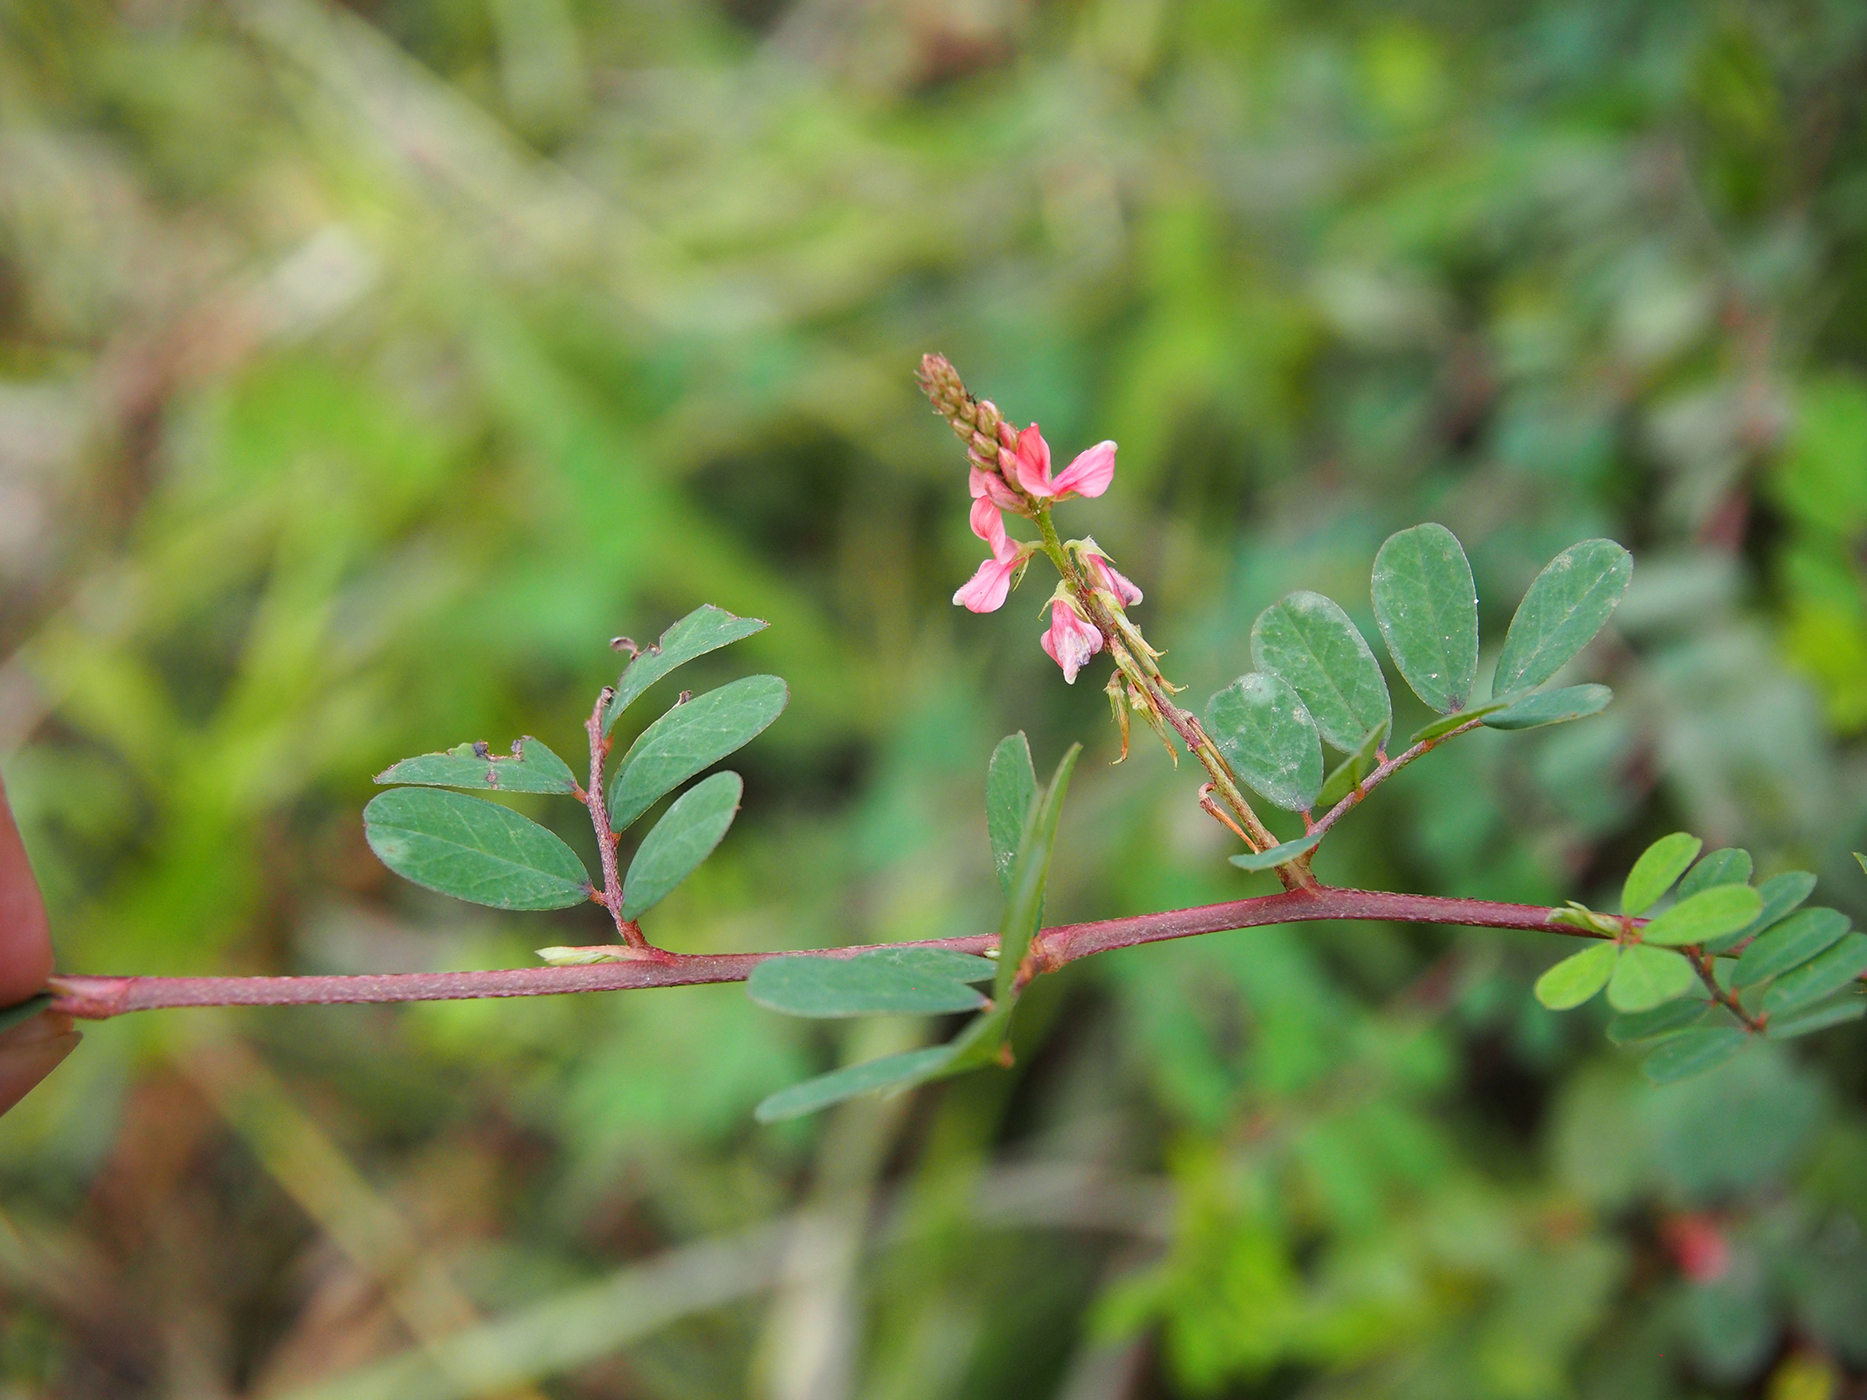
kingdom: Plantae
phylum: Tracheophyta
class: Magnoliopsida
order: Fabales
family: Fabaceae
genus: Indigofera
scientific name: Indigofera hendecaphylla
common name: Trailing indigo
